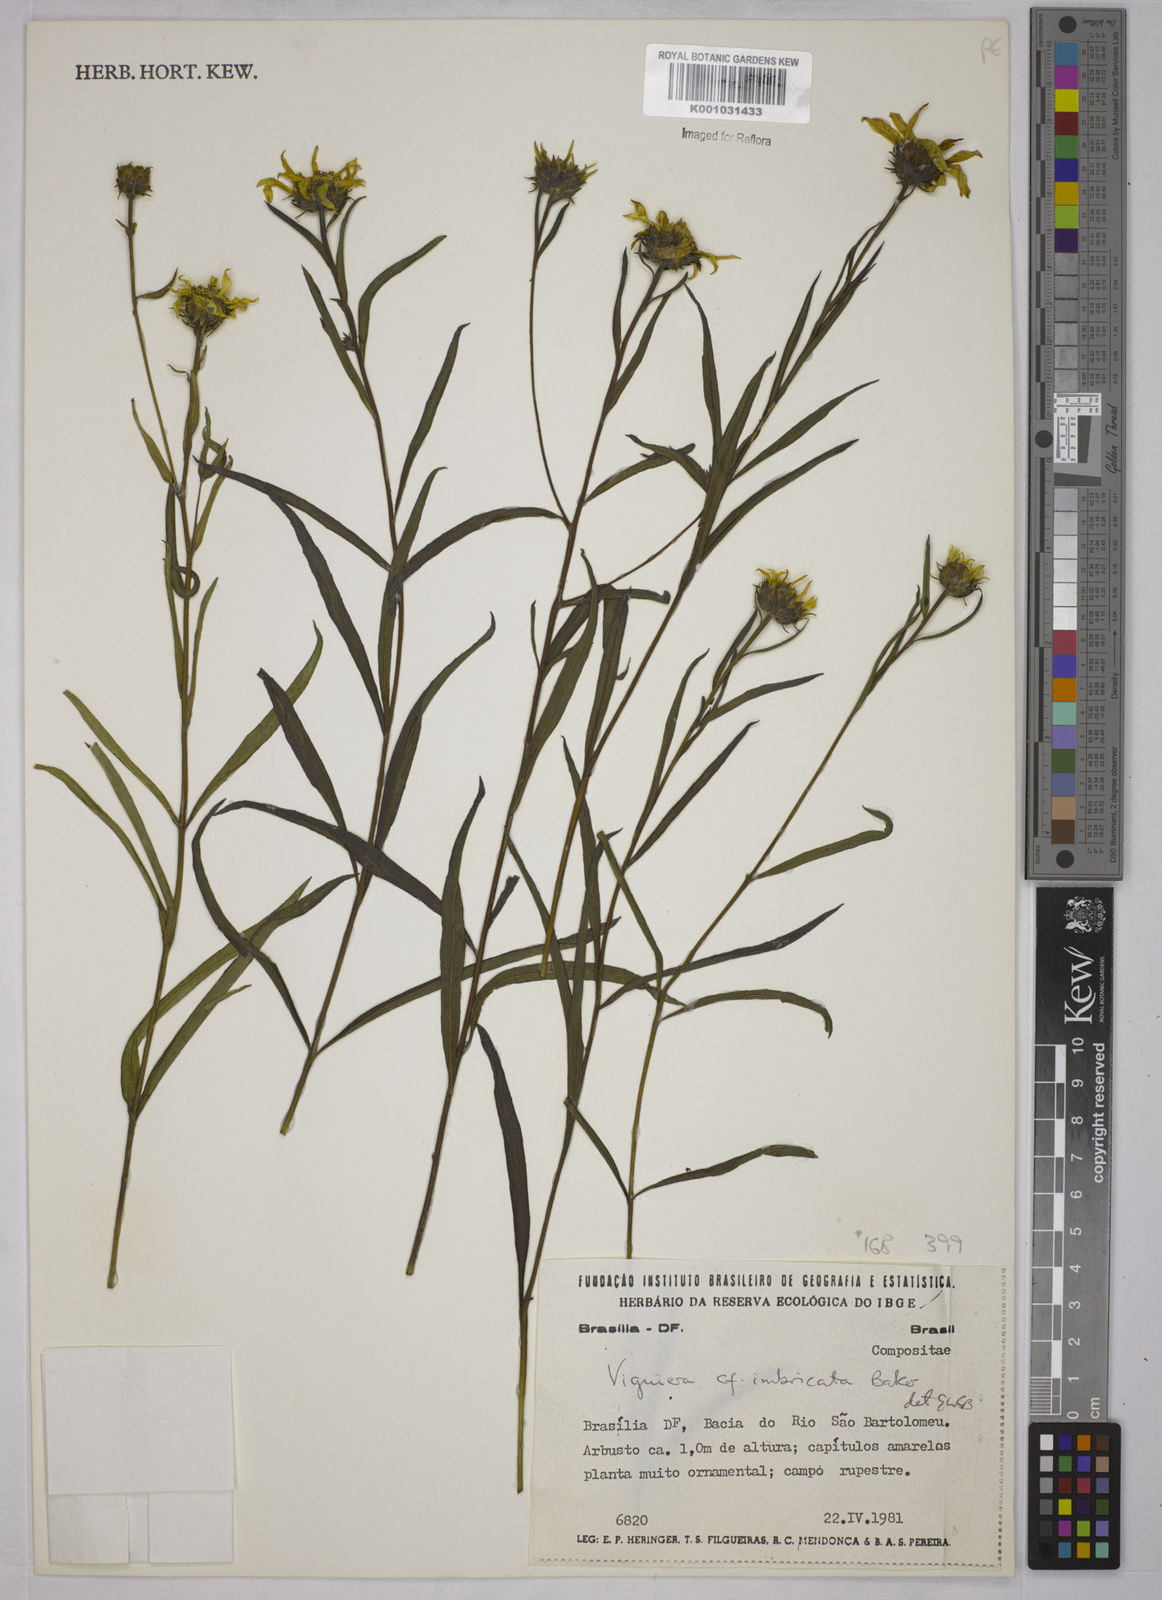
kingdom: Plantae
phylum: Tracheophyta
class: Magnoliopsida
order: Asterales
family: Asteraceae
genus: Aldama
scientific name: Aldama bracteata
